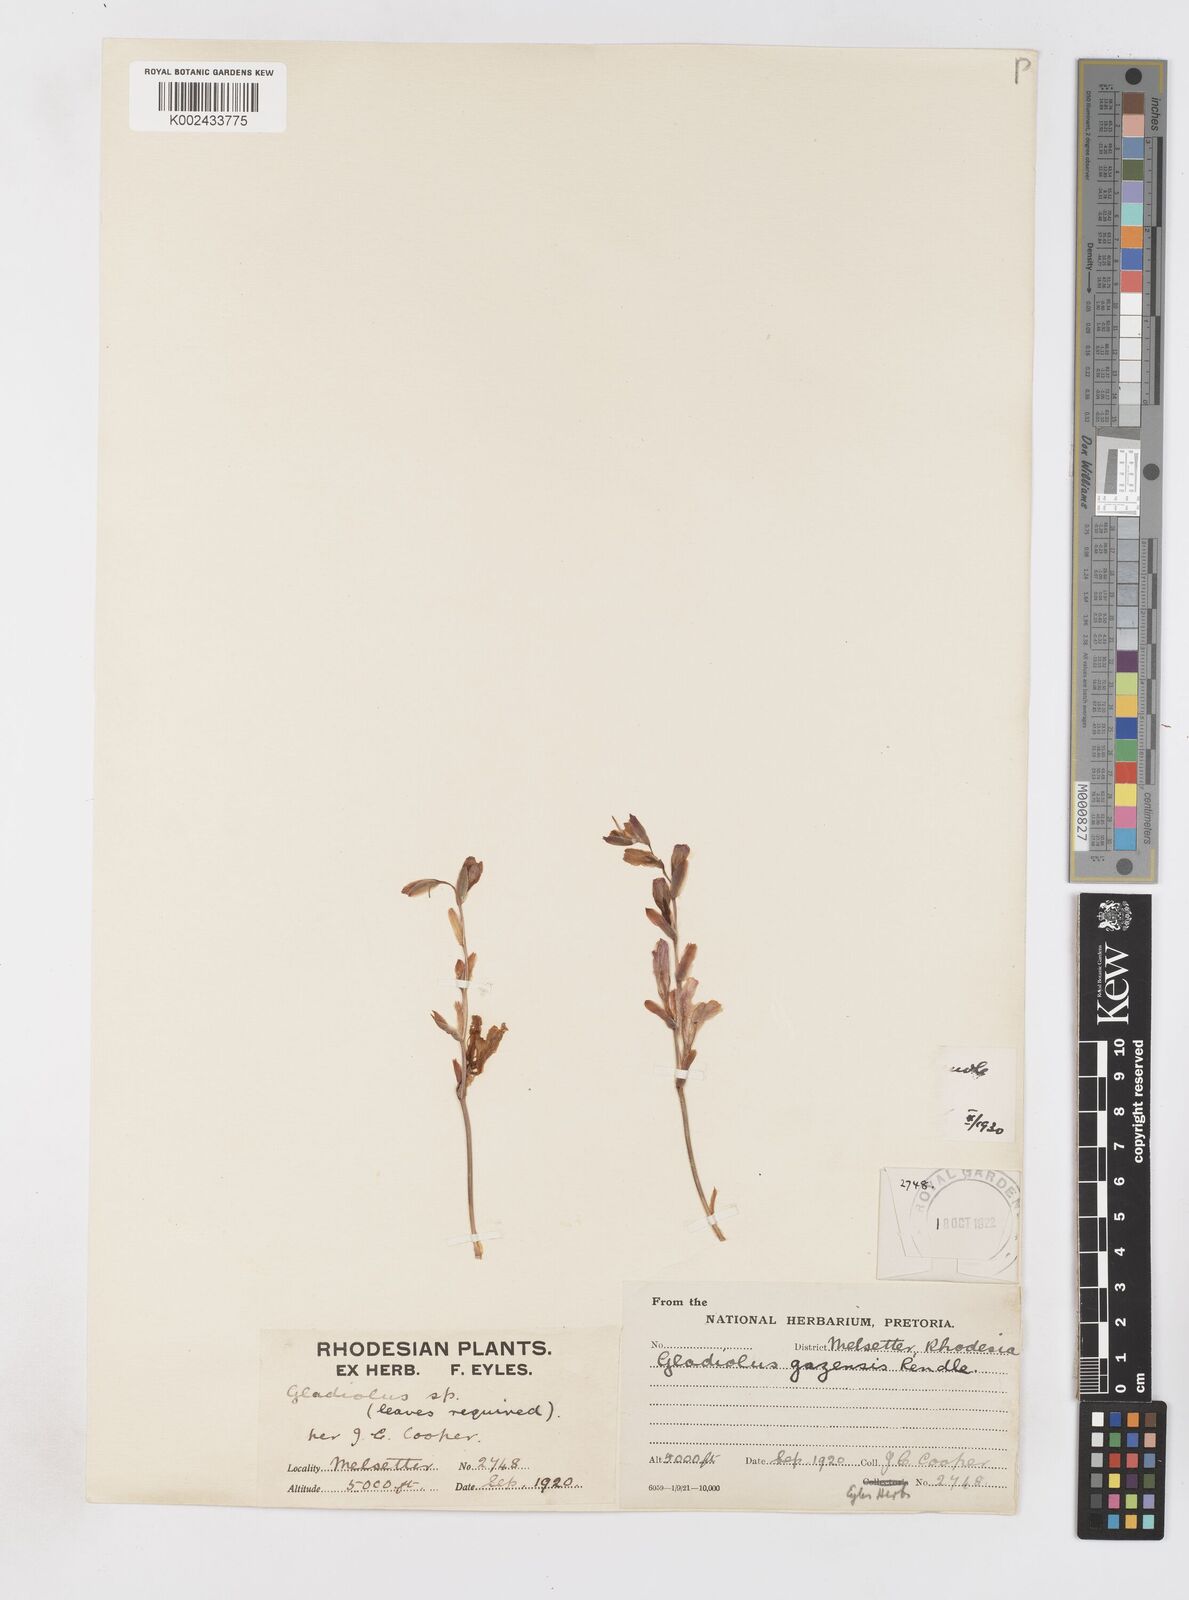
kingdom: Plantae
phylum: Tracheophyta
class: Liliopsida
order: Asparagales
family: Iridaceae
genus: Gladiolus
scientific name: Gladiolus crassifolius
